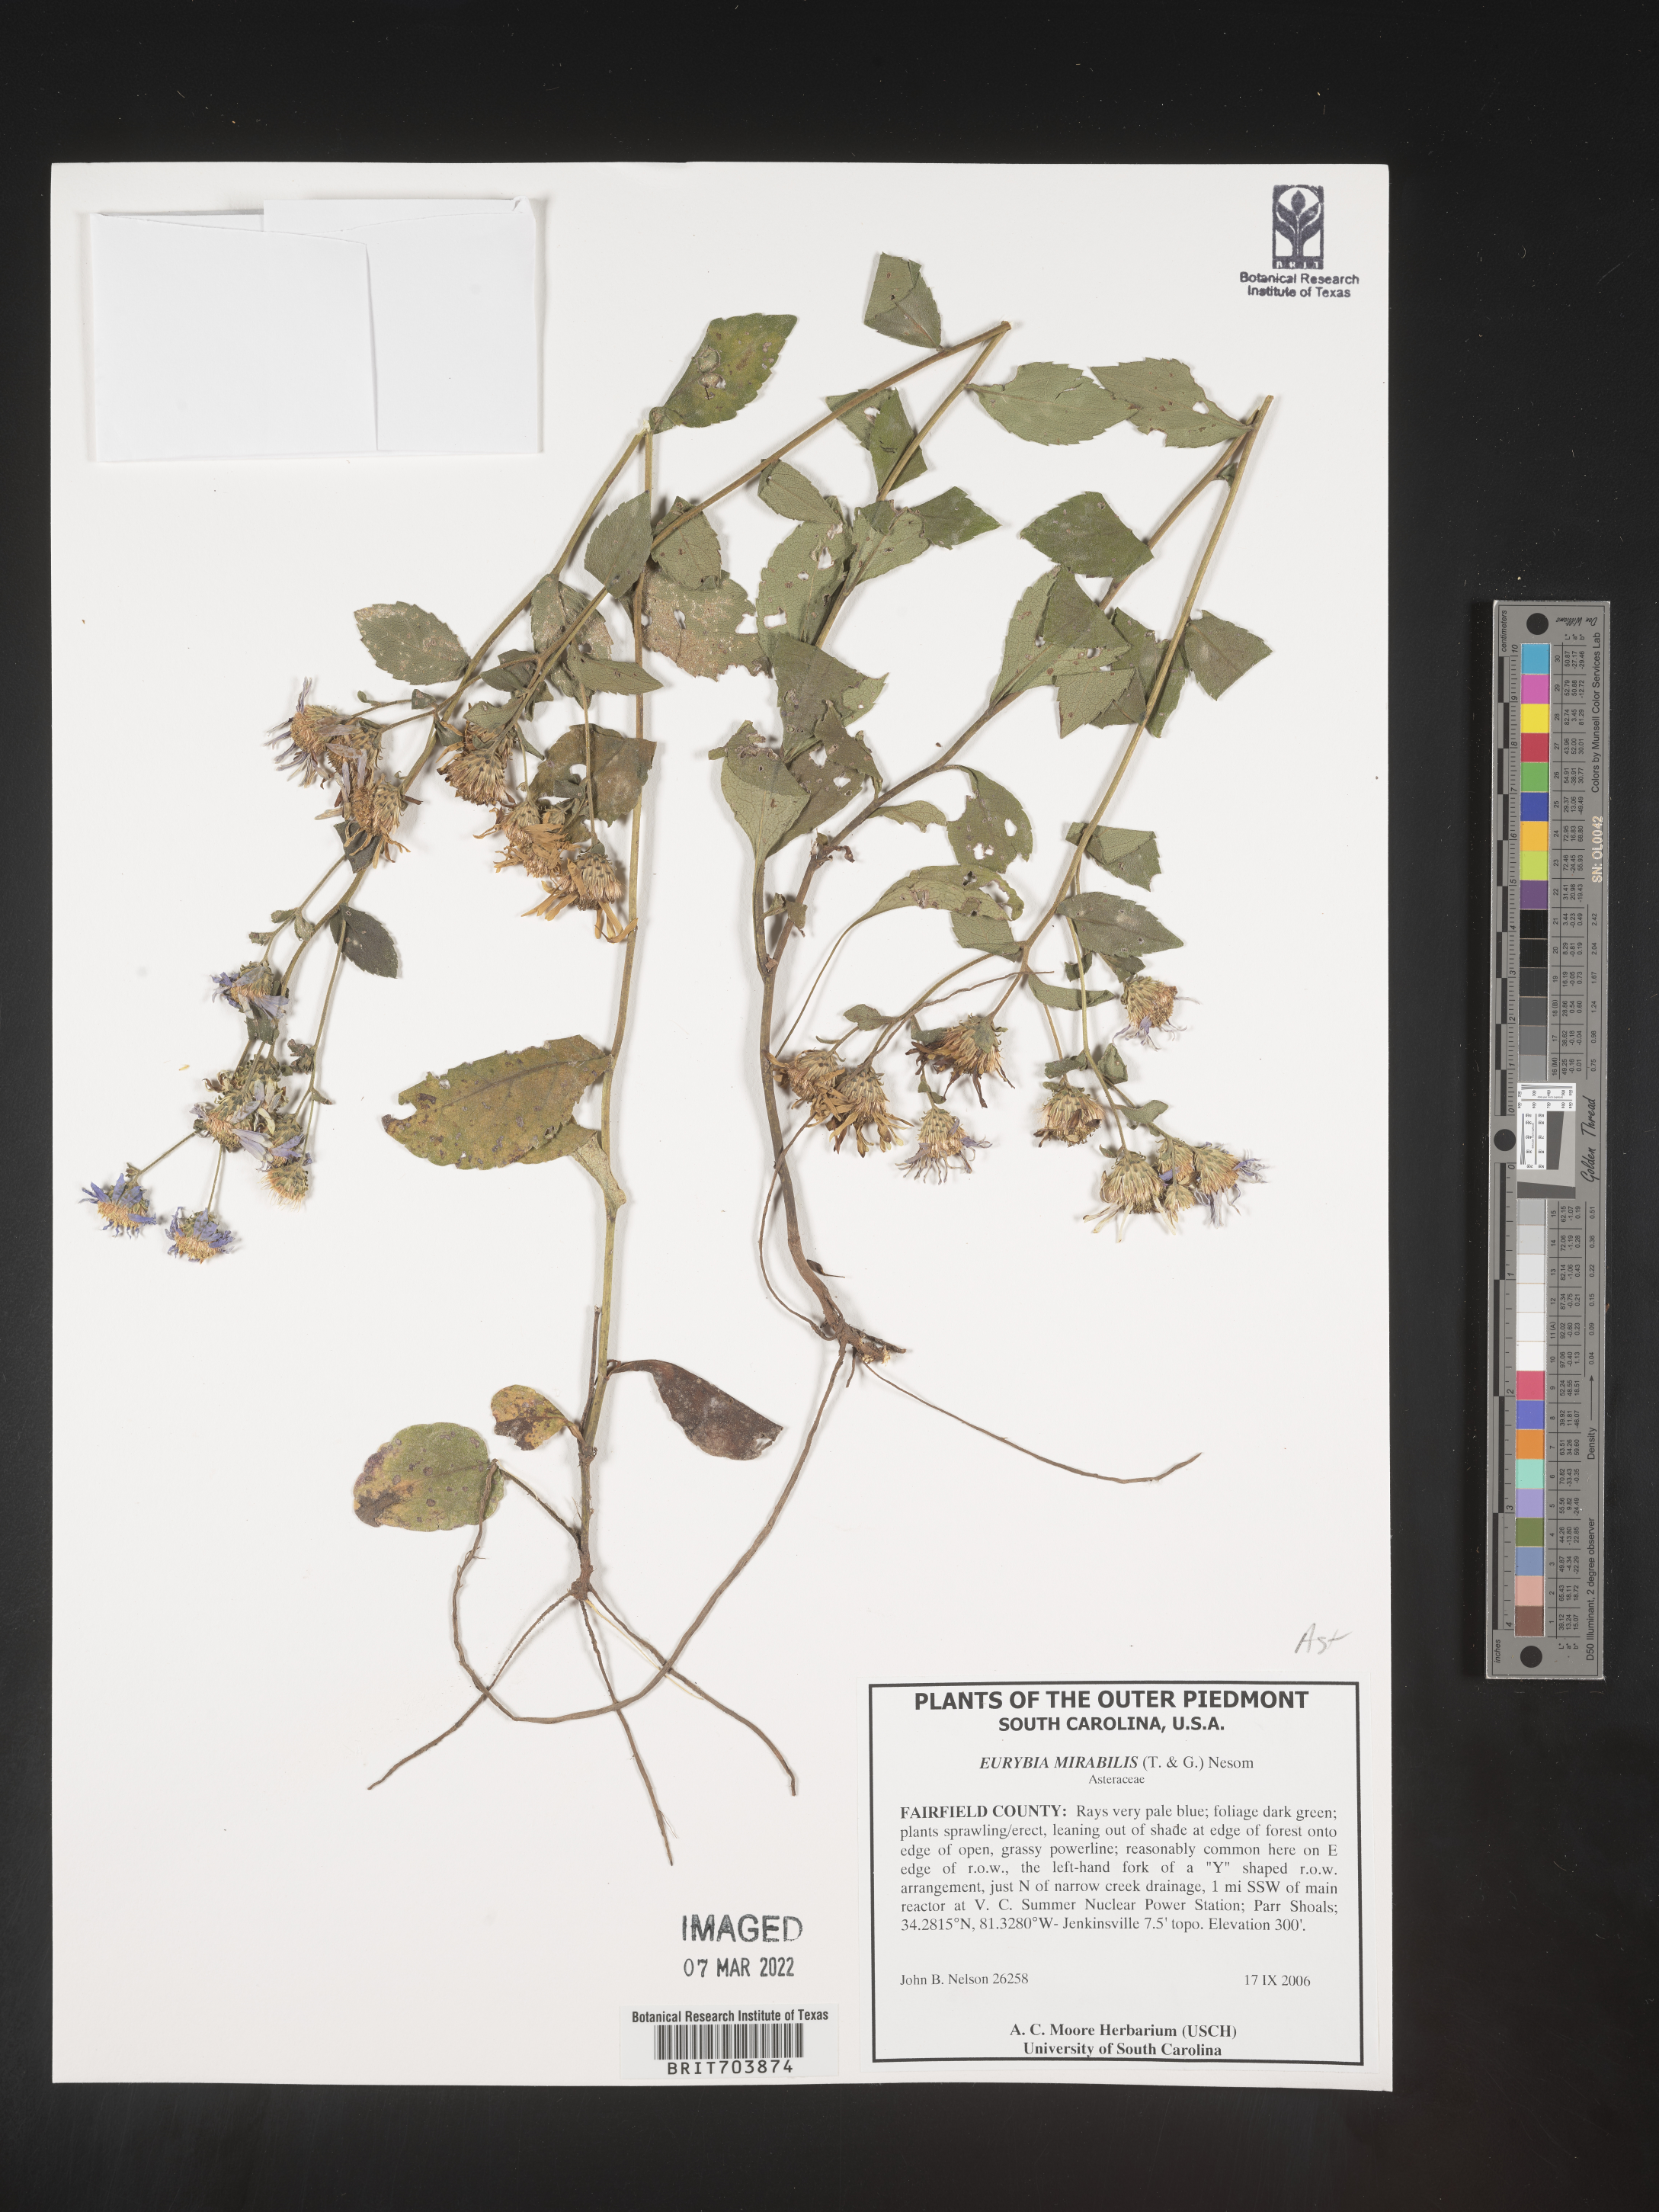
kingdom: Plantae
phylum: Tracheophyta
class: Magnoliopsida
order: Asterales
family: Asteraceae
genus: Eurybia
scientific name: Eurybia mirabilis
